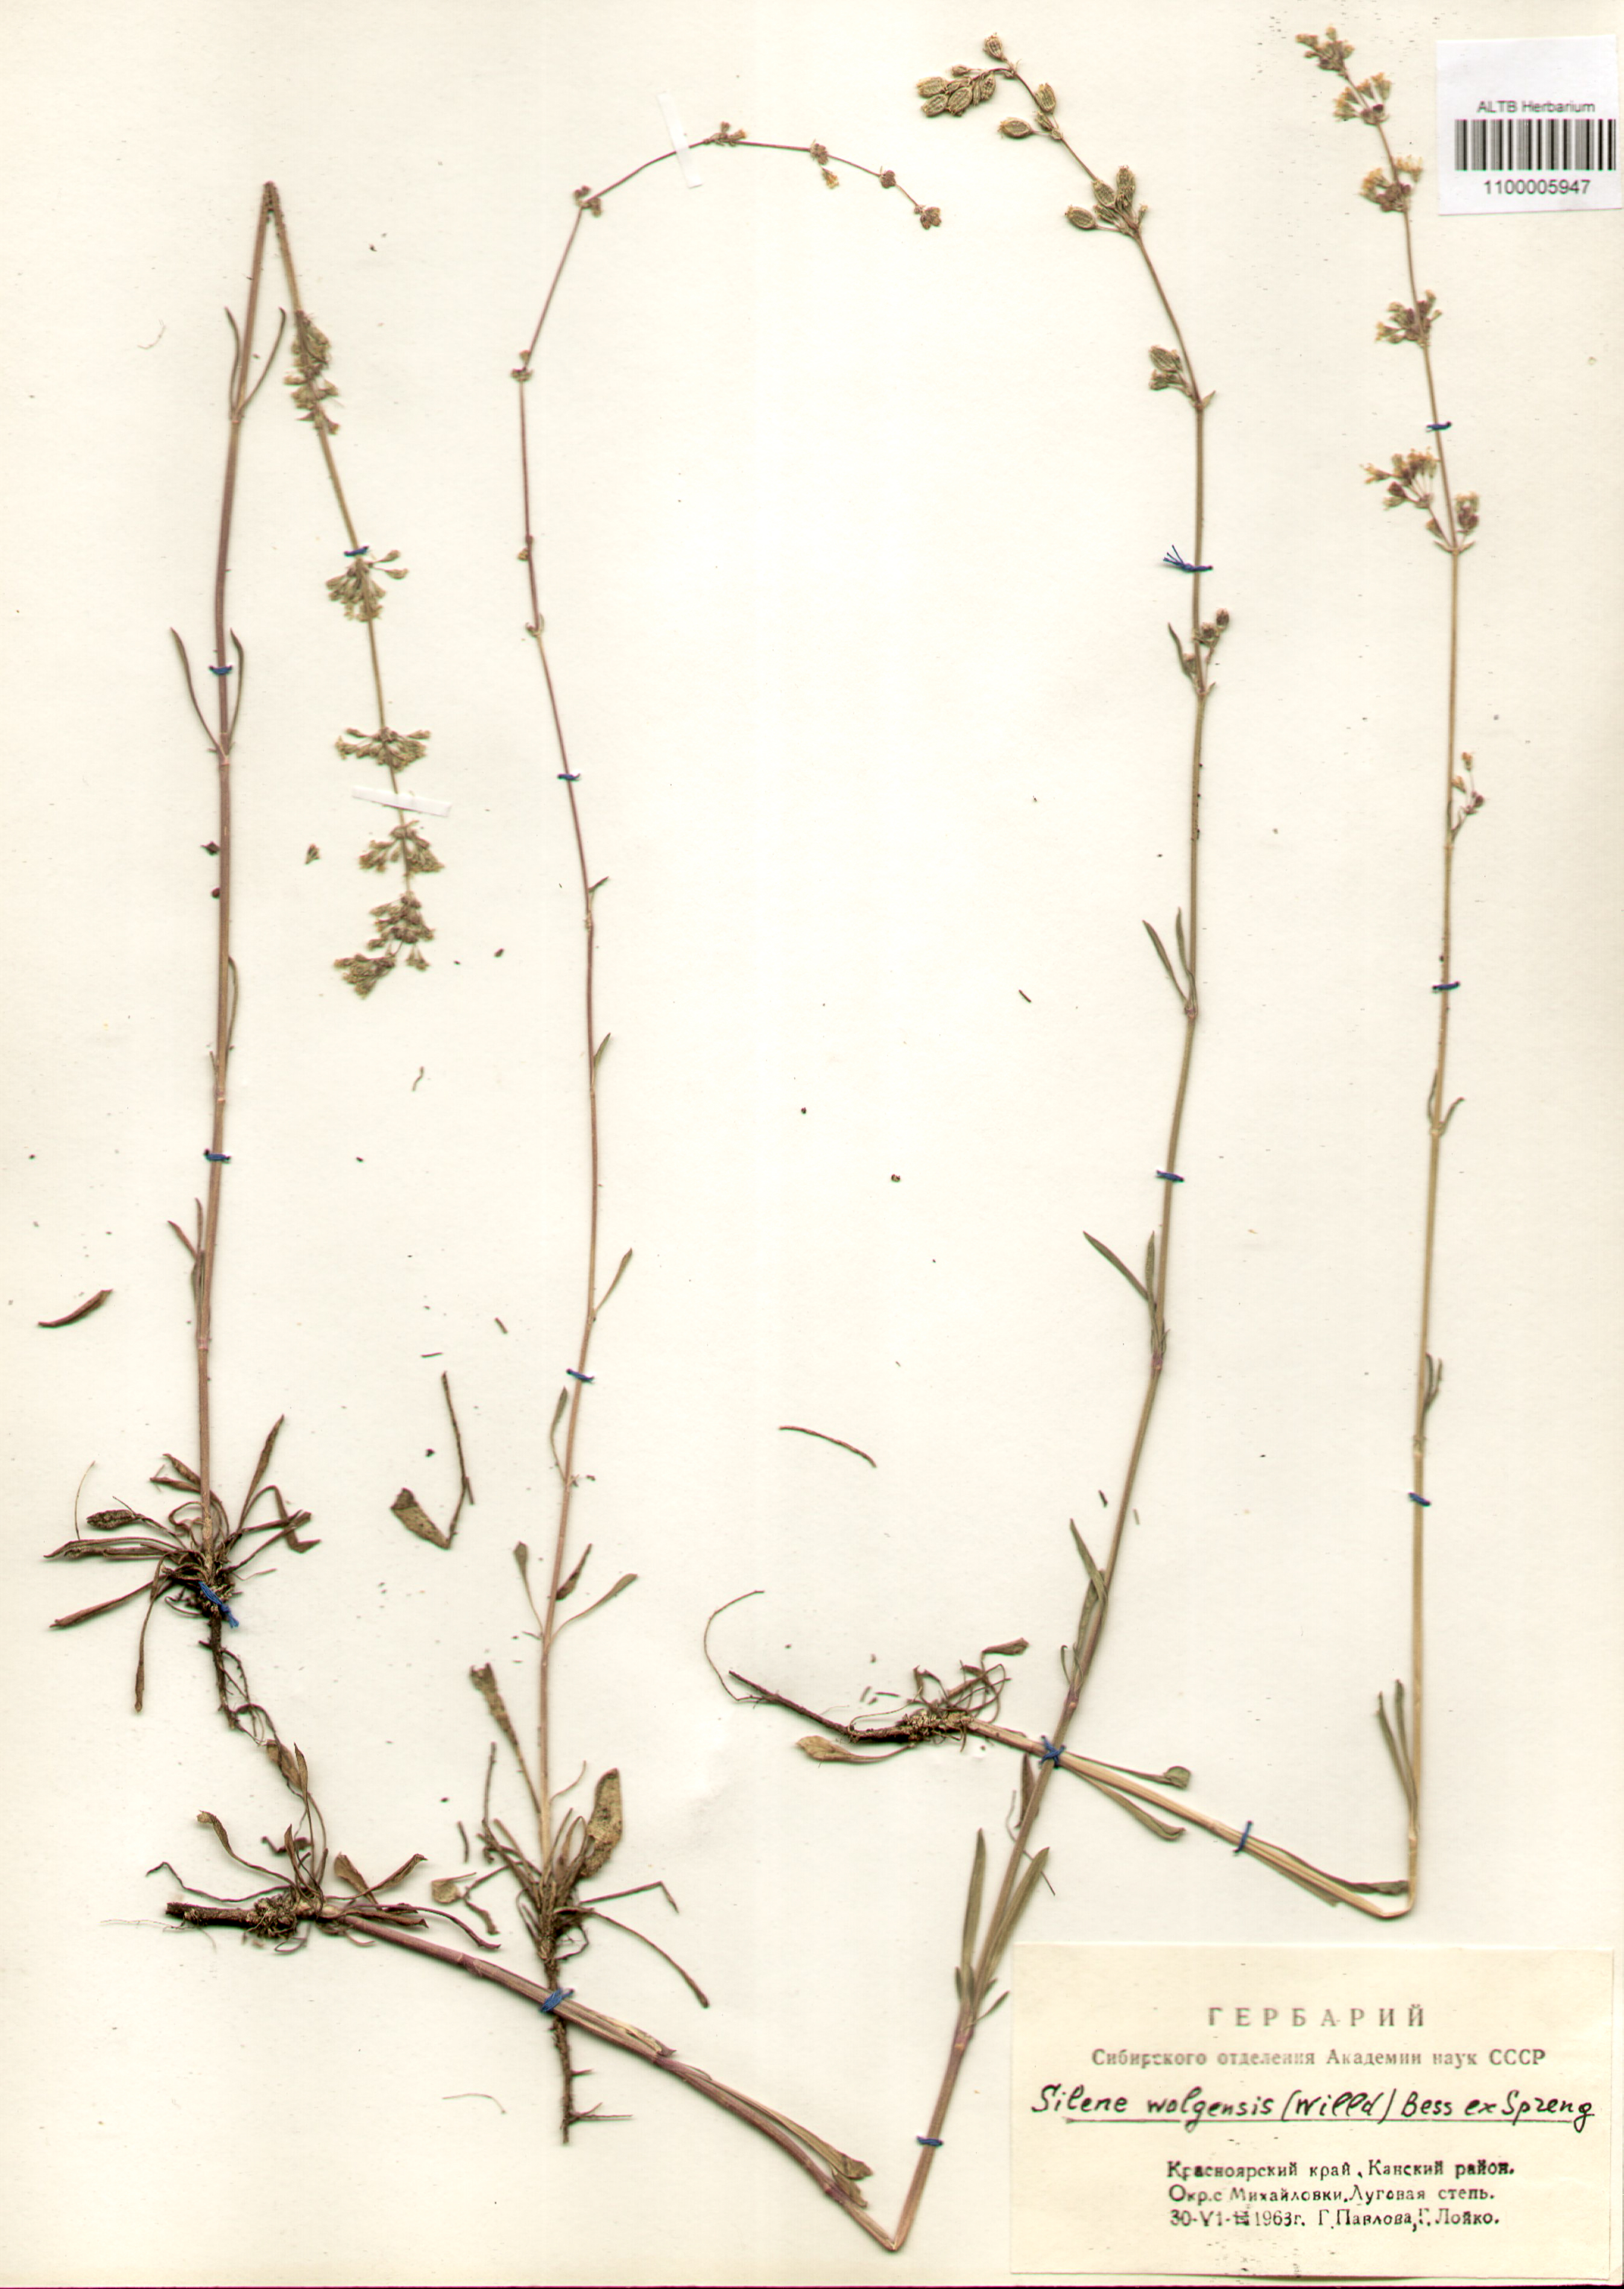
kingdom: Plantae
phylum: Tracheophyta
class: Magnoliopsida
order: Caryophyllales
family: Caryophyllaceae
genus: Silene
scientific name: Silene wolgensis
